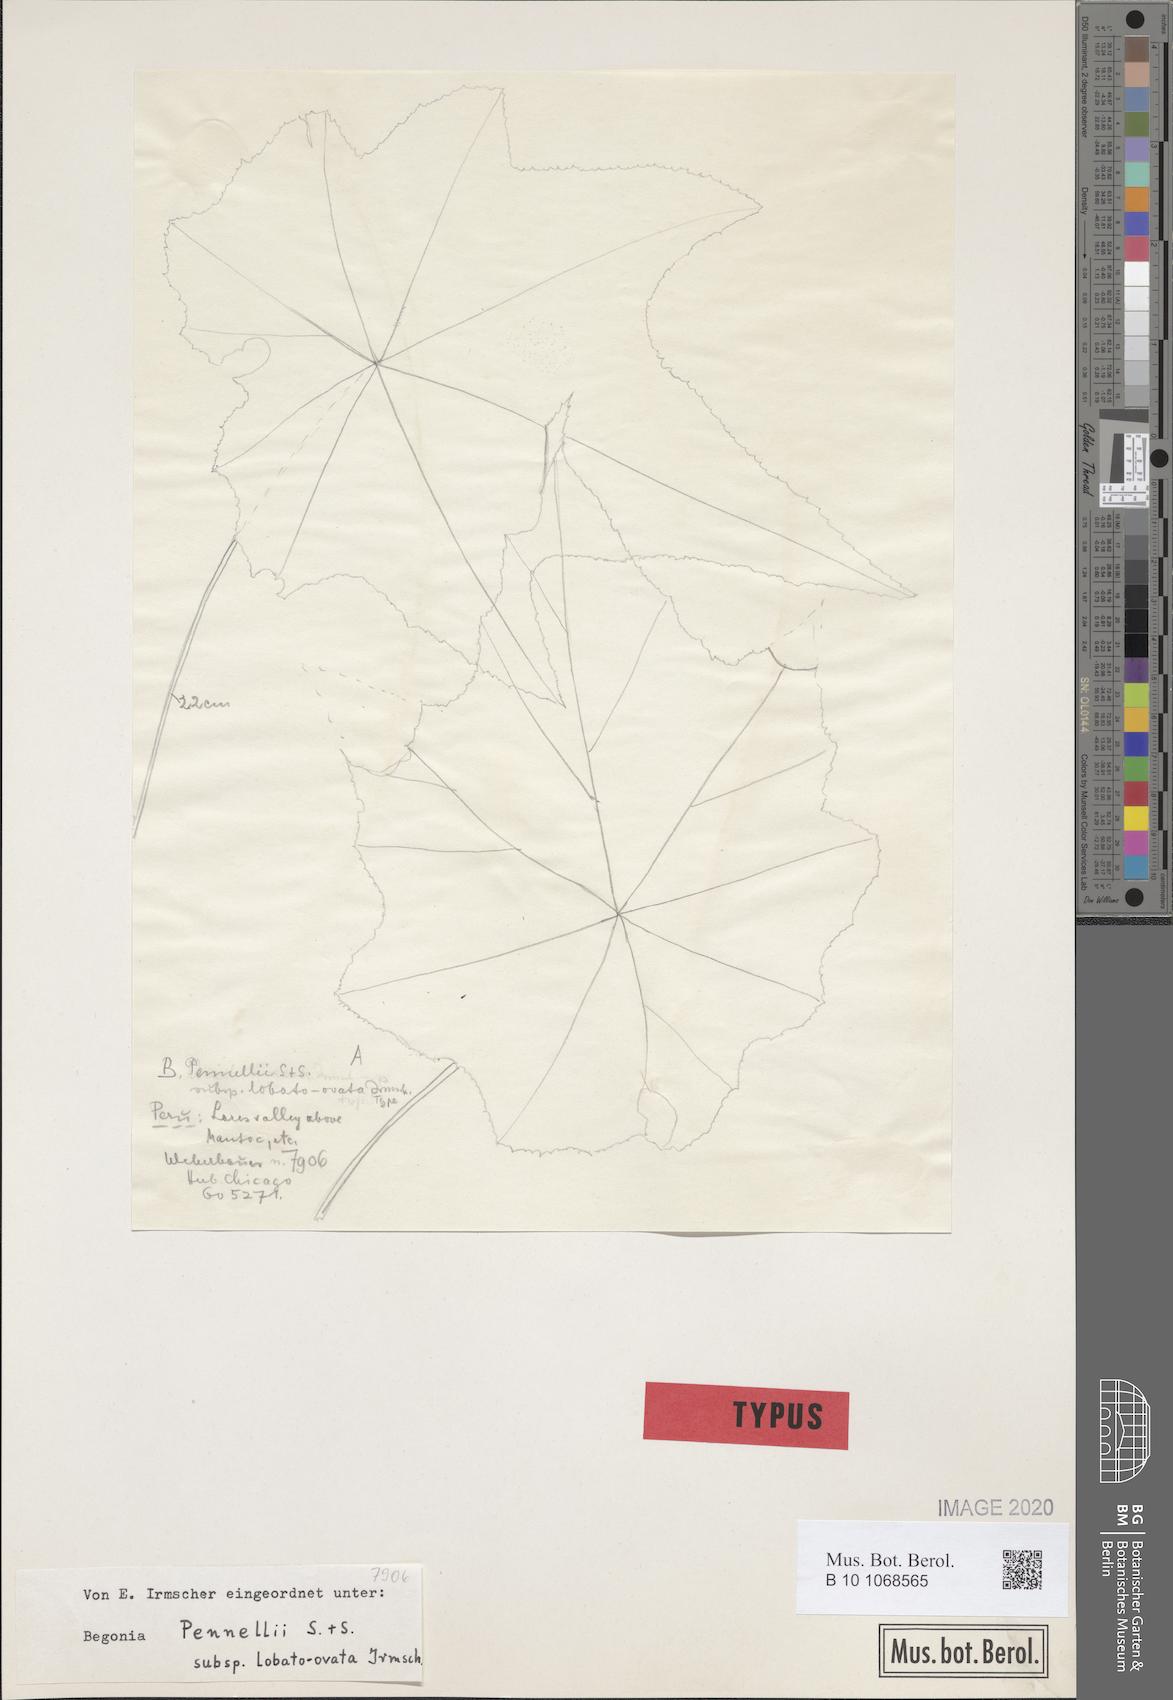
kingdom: Plantae
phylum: Tracheophyta
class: Magnoliopsida
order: Cucurbitales
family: Begoniaceae
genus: Begonia
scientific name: Begonia acerifolia
